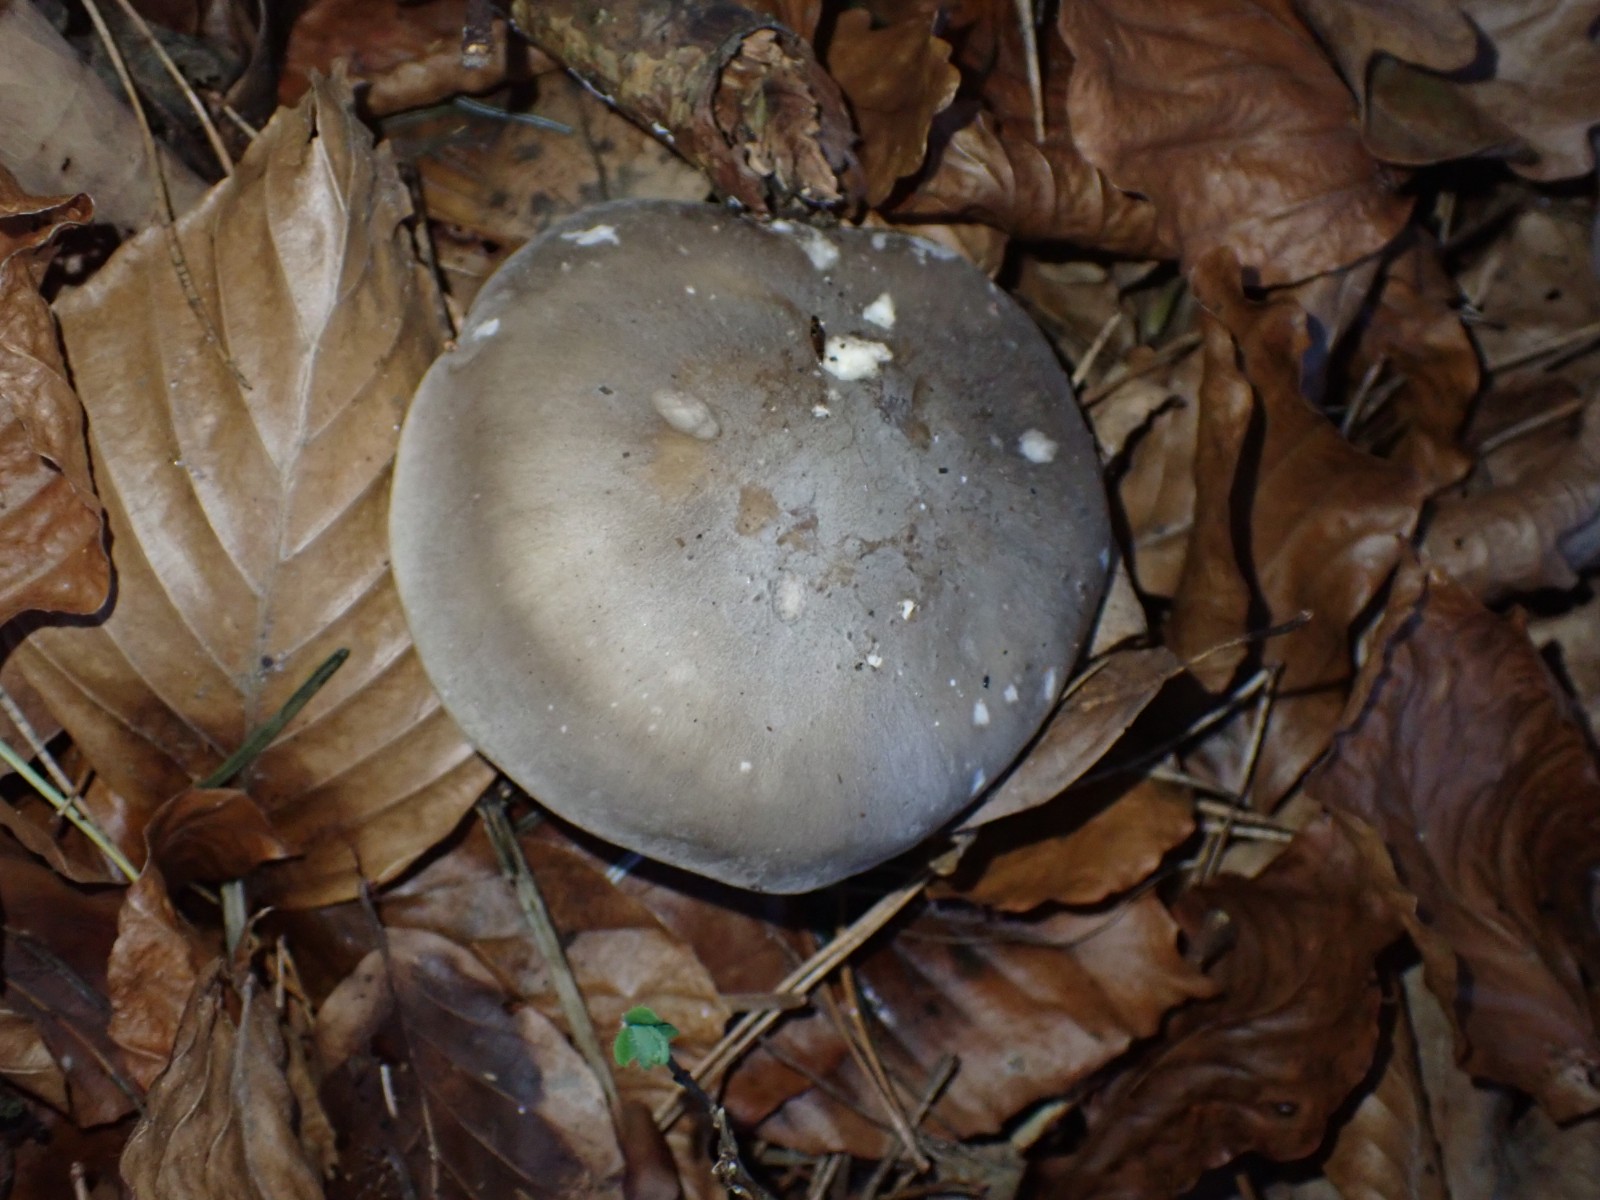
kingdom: Fungi
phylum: Basidiomycota
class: Agaricomycetes
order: Agaricales
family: Tricholomataceae
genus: Clitocybe
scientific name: Clitocybe nebularis
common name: tåge-tragthat
